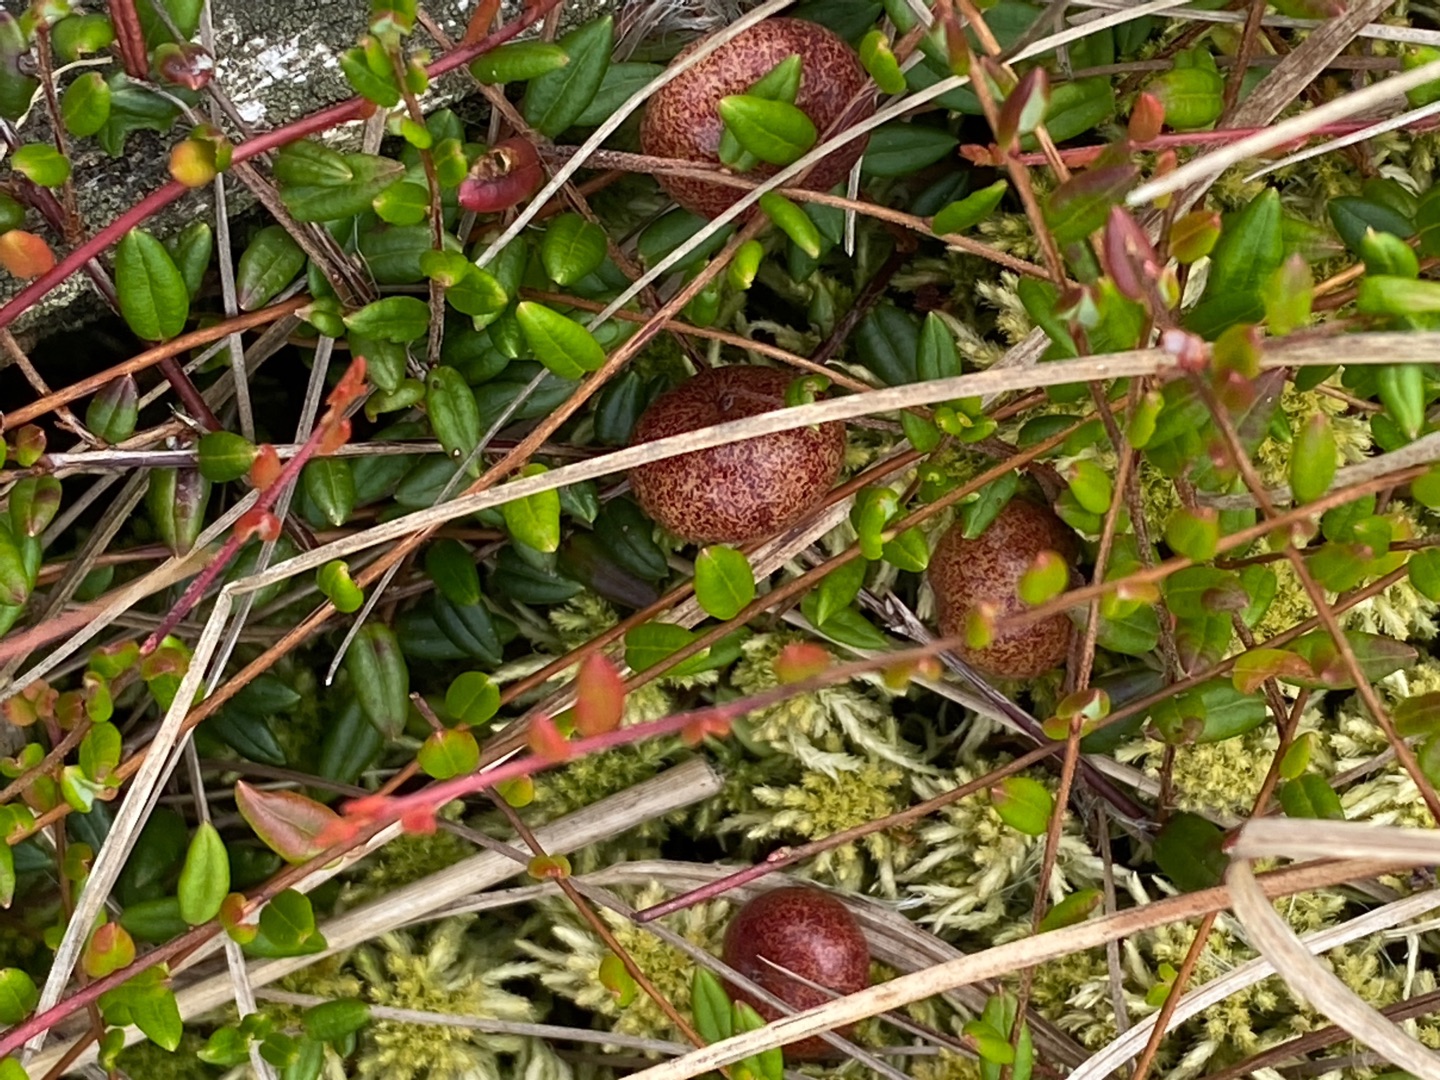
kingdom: Plantae
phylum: Tracheophyta
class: Magnoliopsida
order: Ericales
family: Ericaceae
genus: Vaccinium
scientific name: Vaccinium oxycoccos
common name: Tranebær
